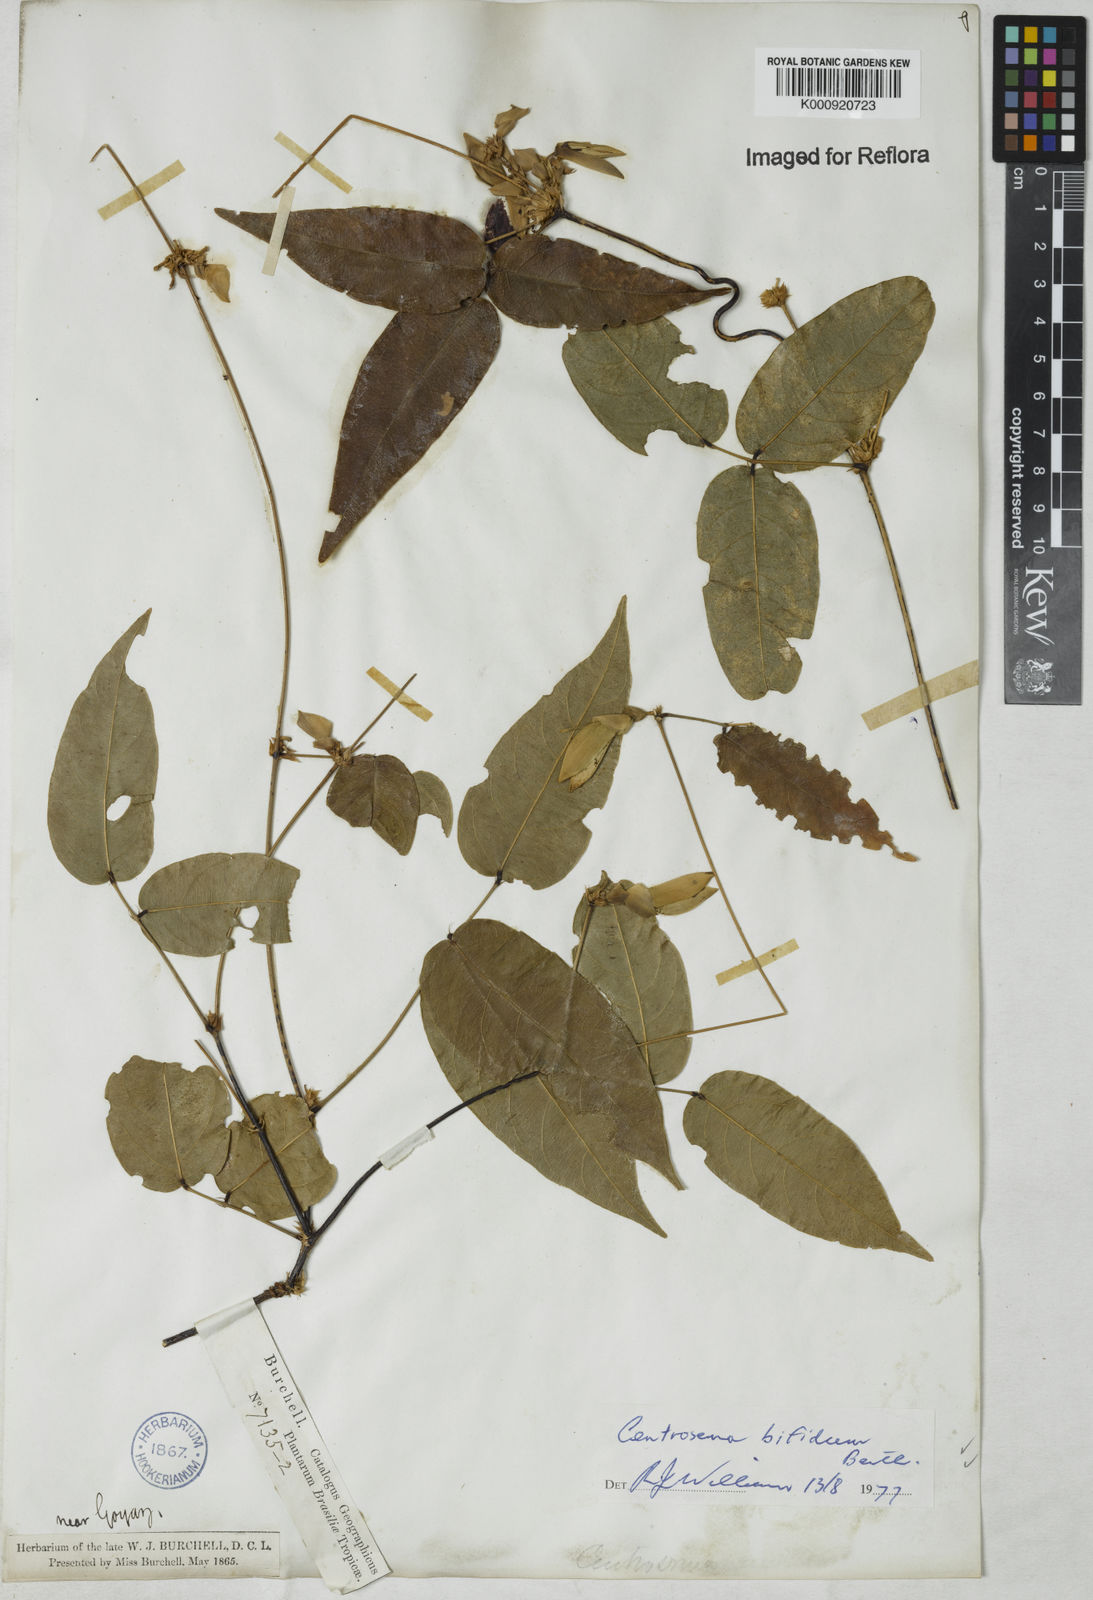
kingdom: Plantae
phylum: Tracheophyta
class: Magnoliopsida
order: Fabales
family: Fabaceae
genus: Centrosema
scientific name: Centrosema bifidum
